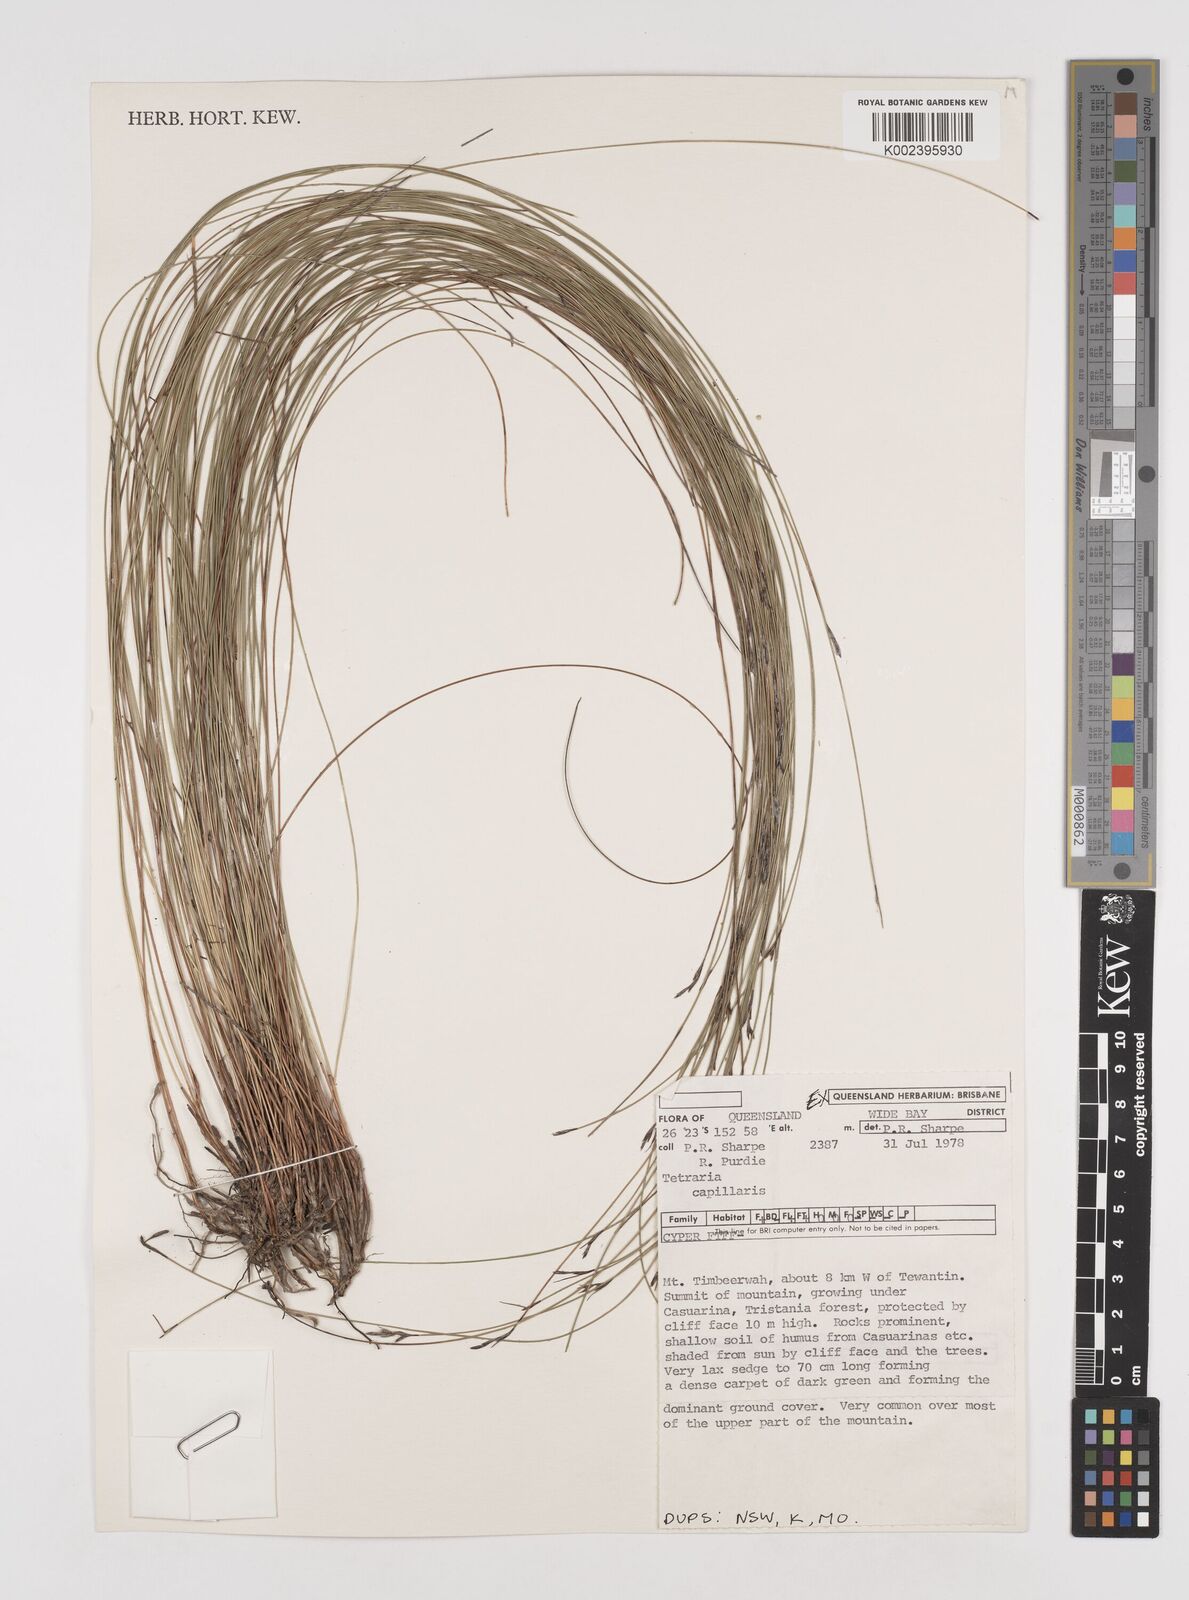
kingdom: Plantae
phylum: Tracheophyta
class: Liliopsida
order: Poales
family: Cyperaceae
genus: Tetraria
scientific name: Tetraria capillaris
